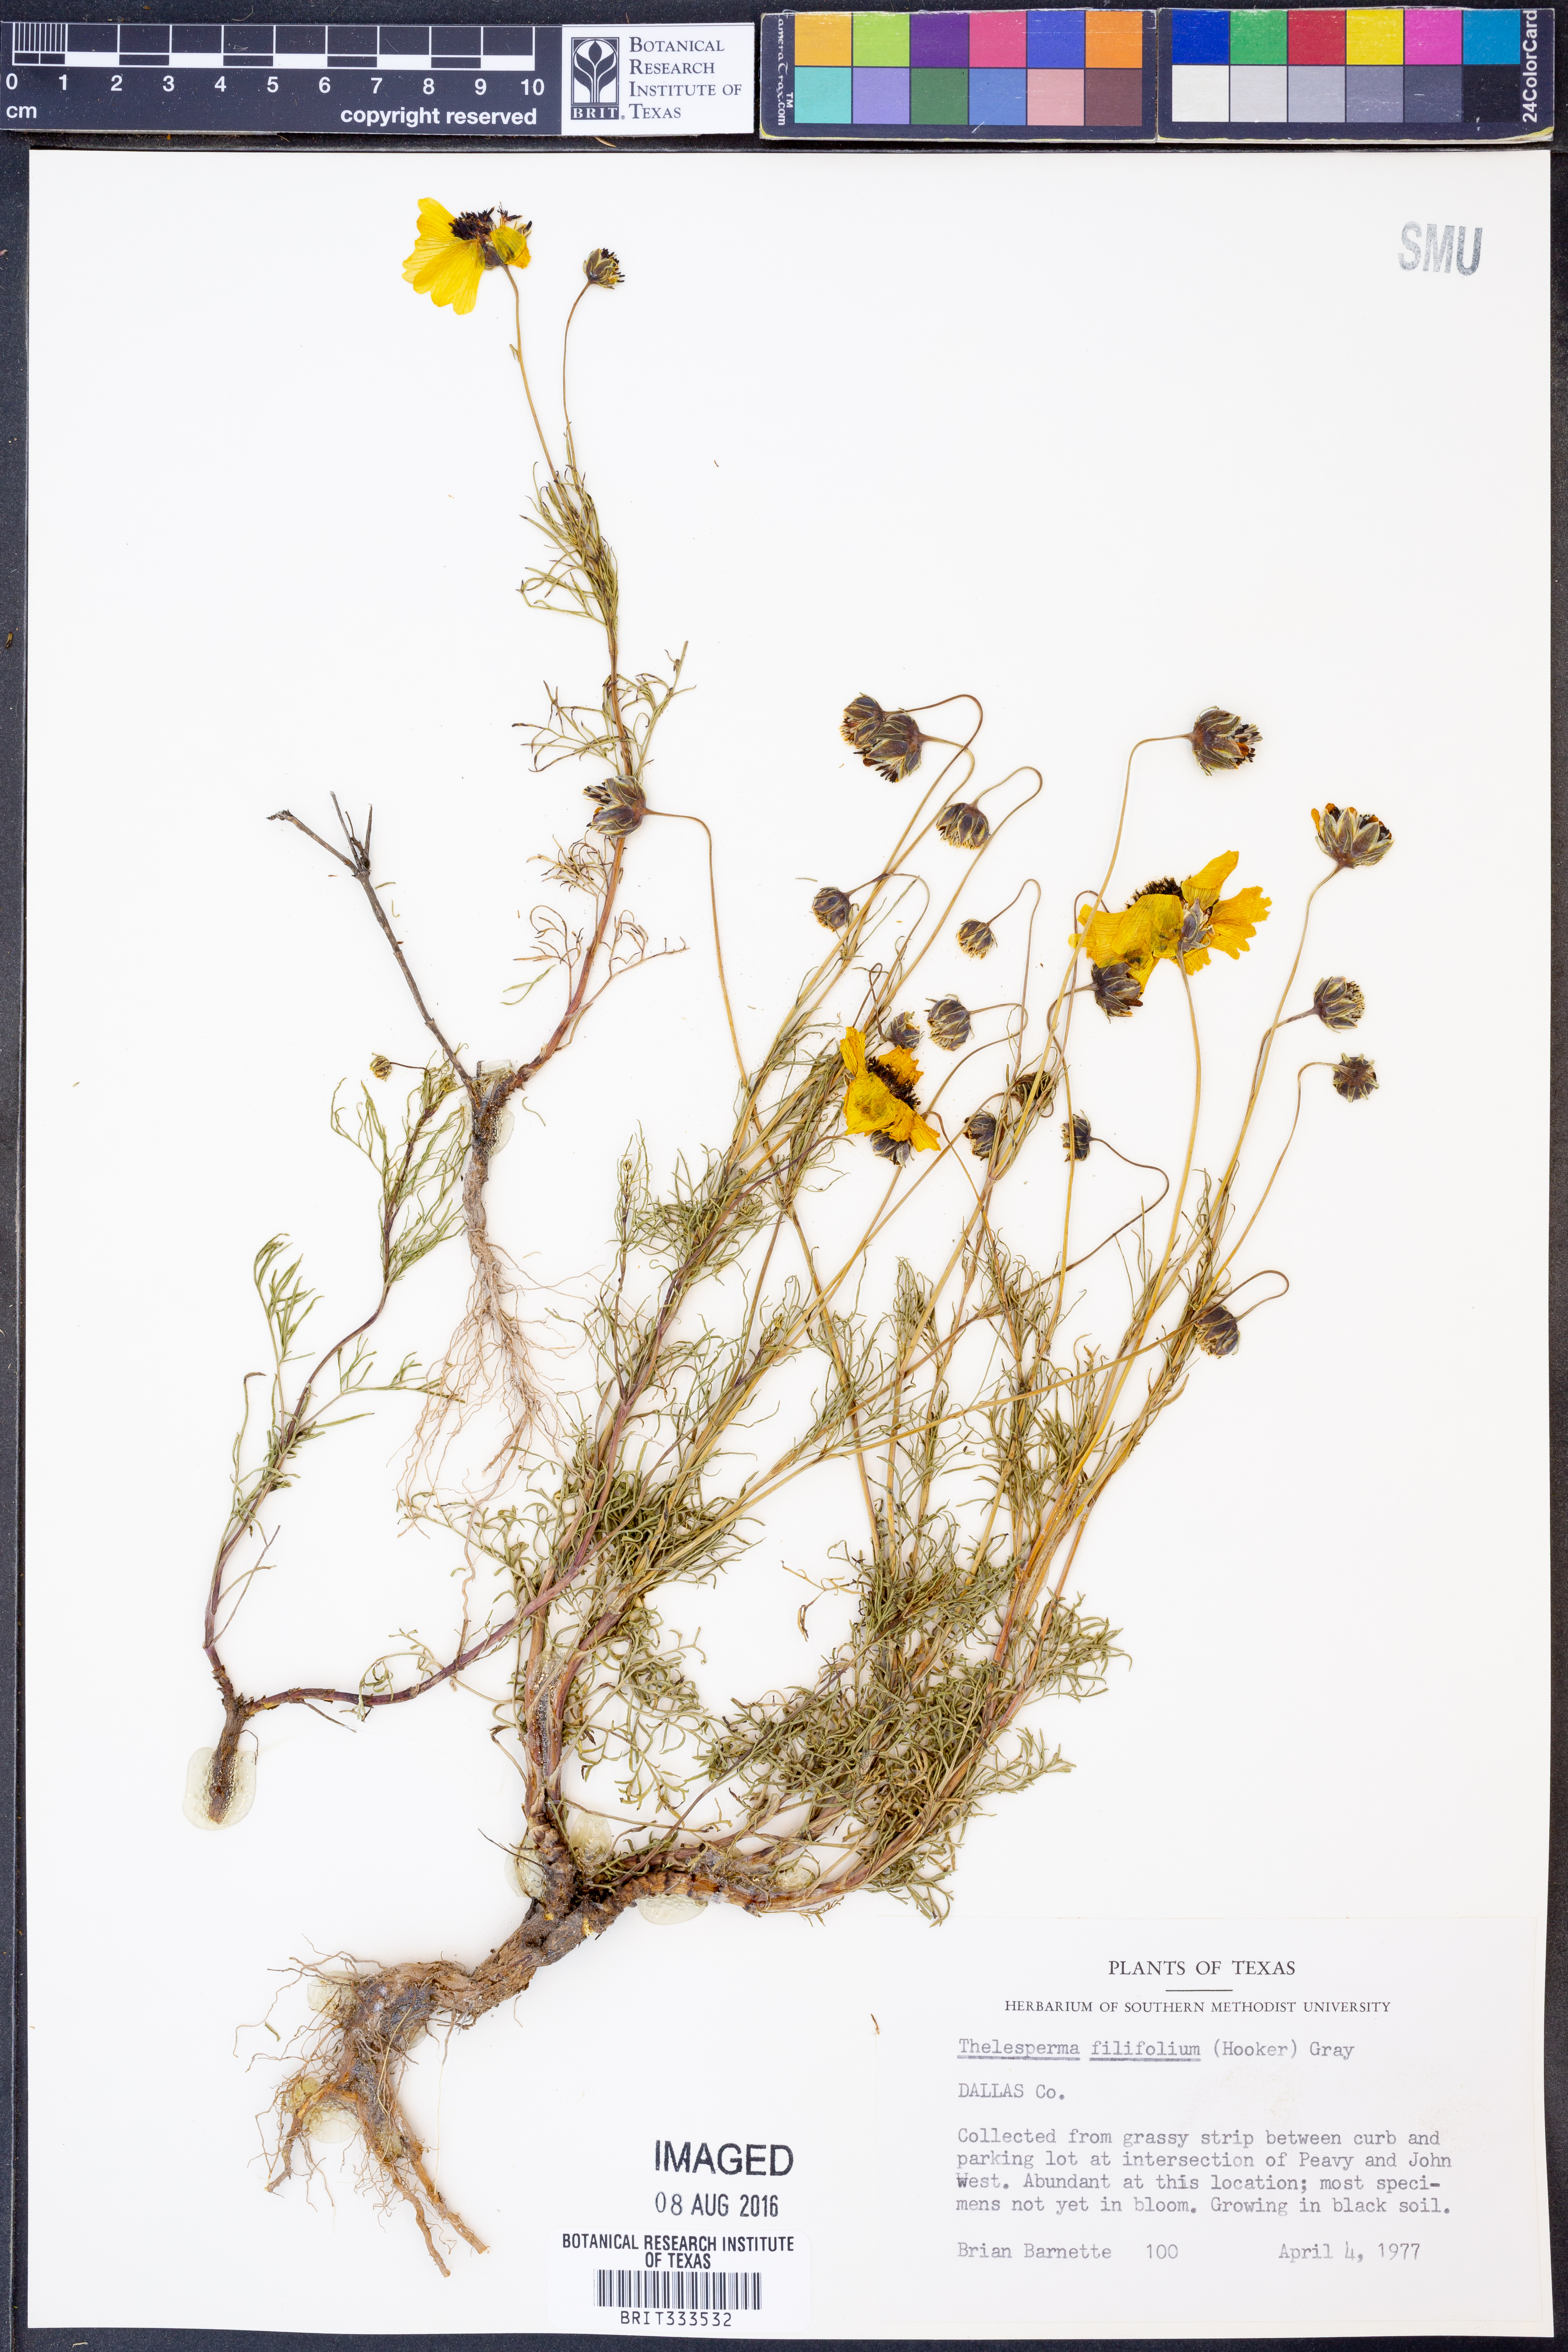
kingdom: Plantae
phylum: Tracheophyta
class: Magnoliopsida
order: Asterales
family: Asteraceae
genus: Thelesperma
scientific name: Thelesperma filifolium
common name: Stiff greenthread
